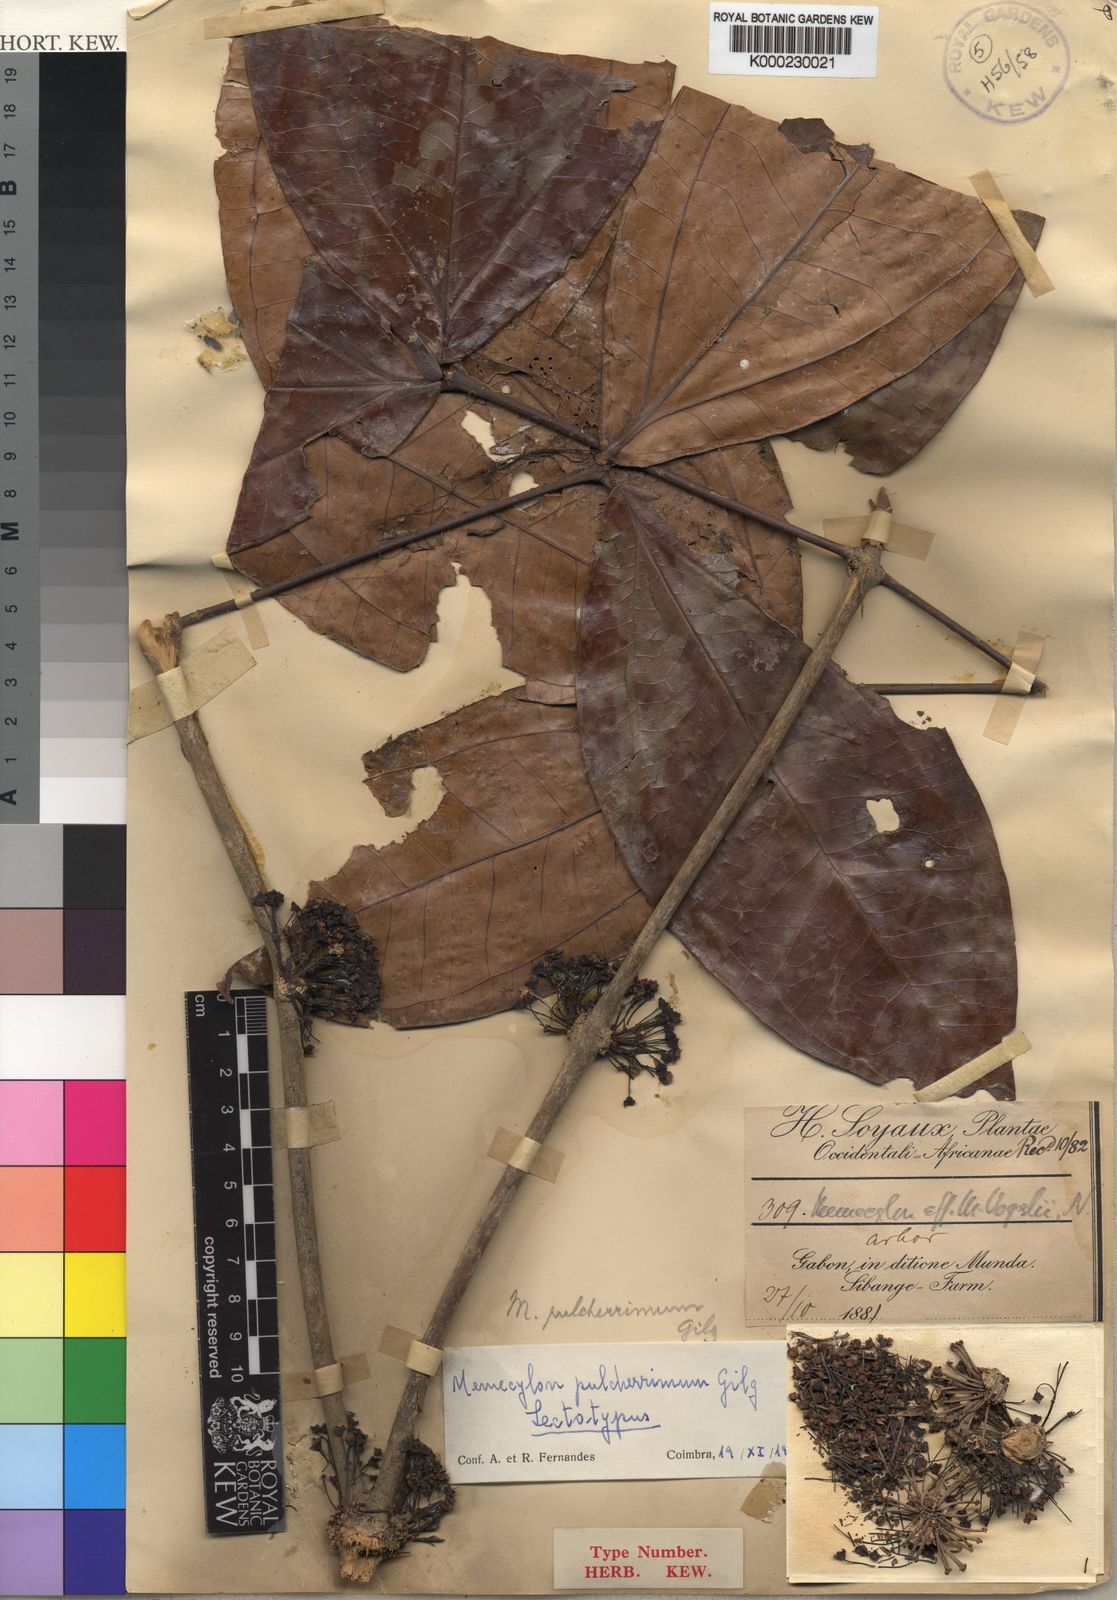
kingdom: Plantae
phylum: Tracheophyta
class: Magnoliopsida
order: Myrtales
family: Melastomataceae
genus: Warneckea
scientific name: Warneckea pulcherrima
